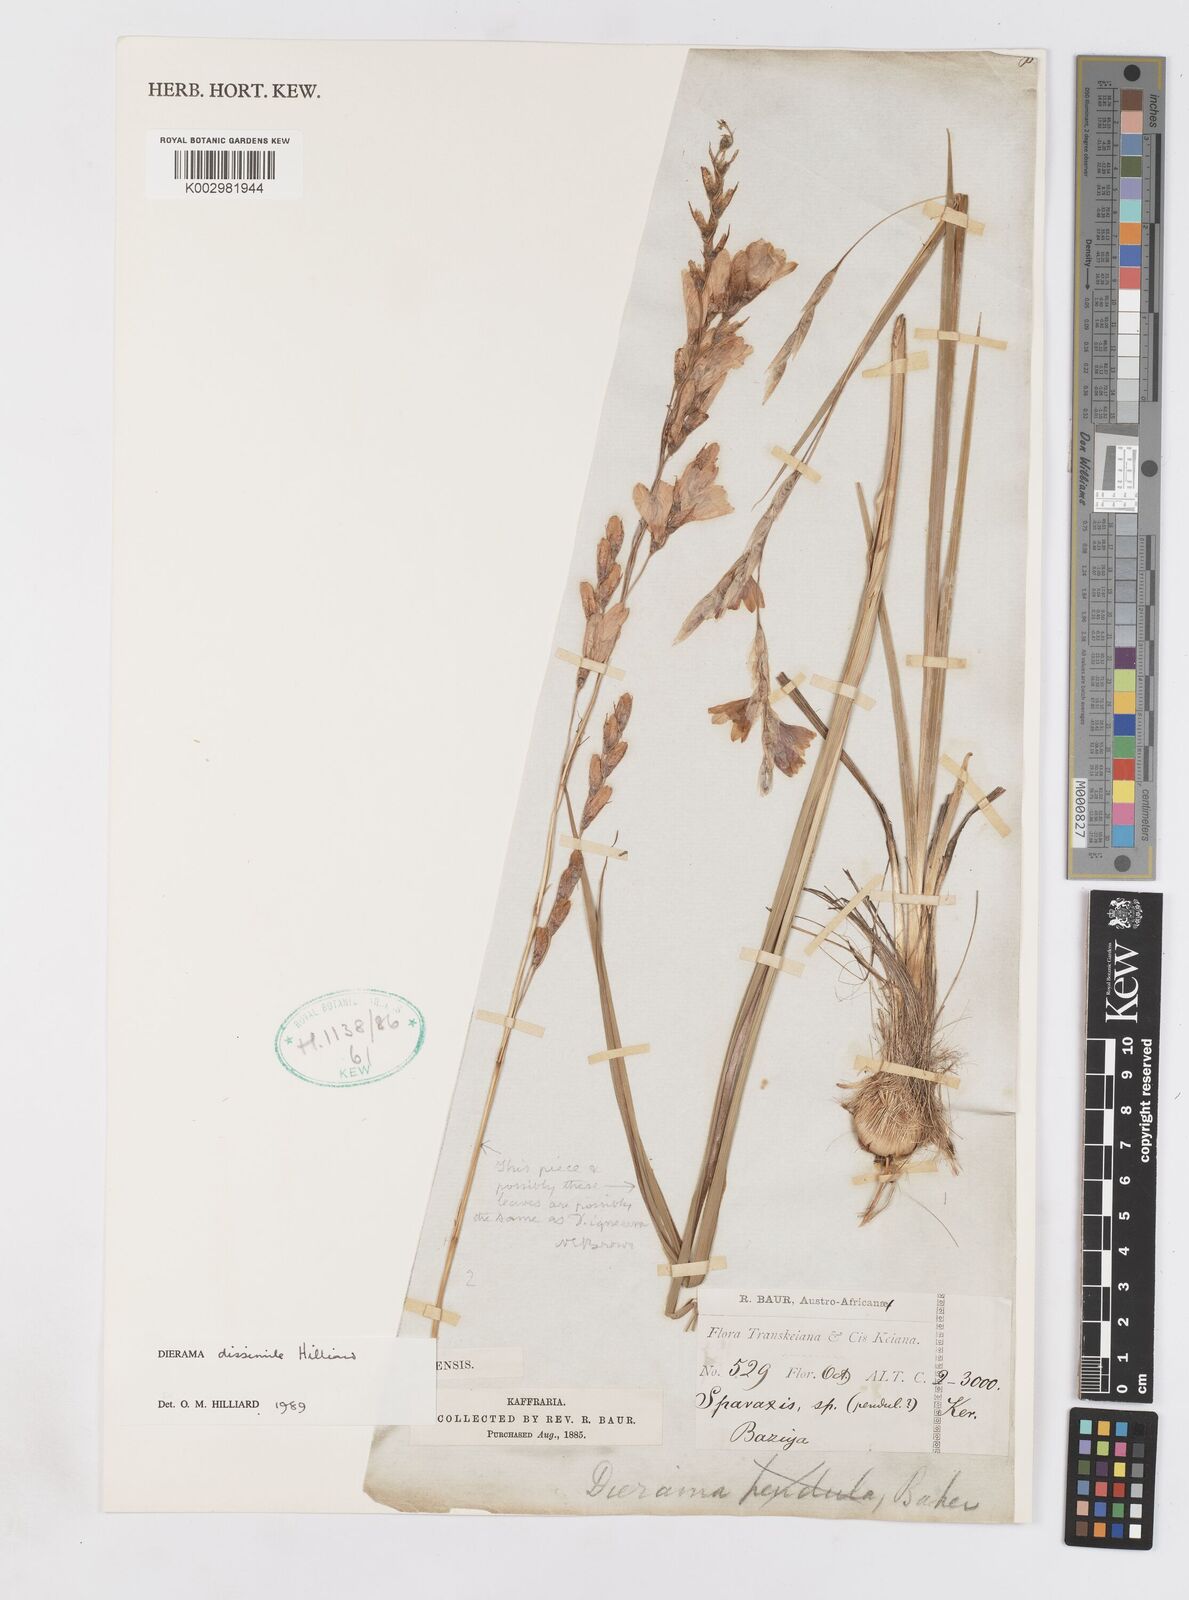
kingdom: Plantae
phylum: Tracheophyta
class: Liliopsida
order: Asparagales
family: Iridaceae
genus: Dierama
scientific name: Dierama dissimile
